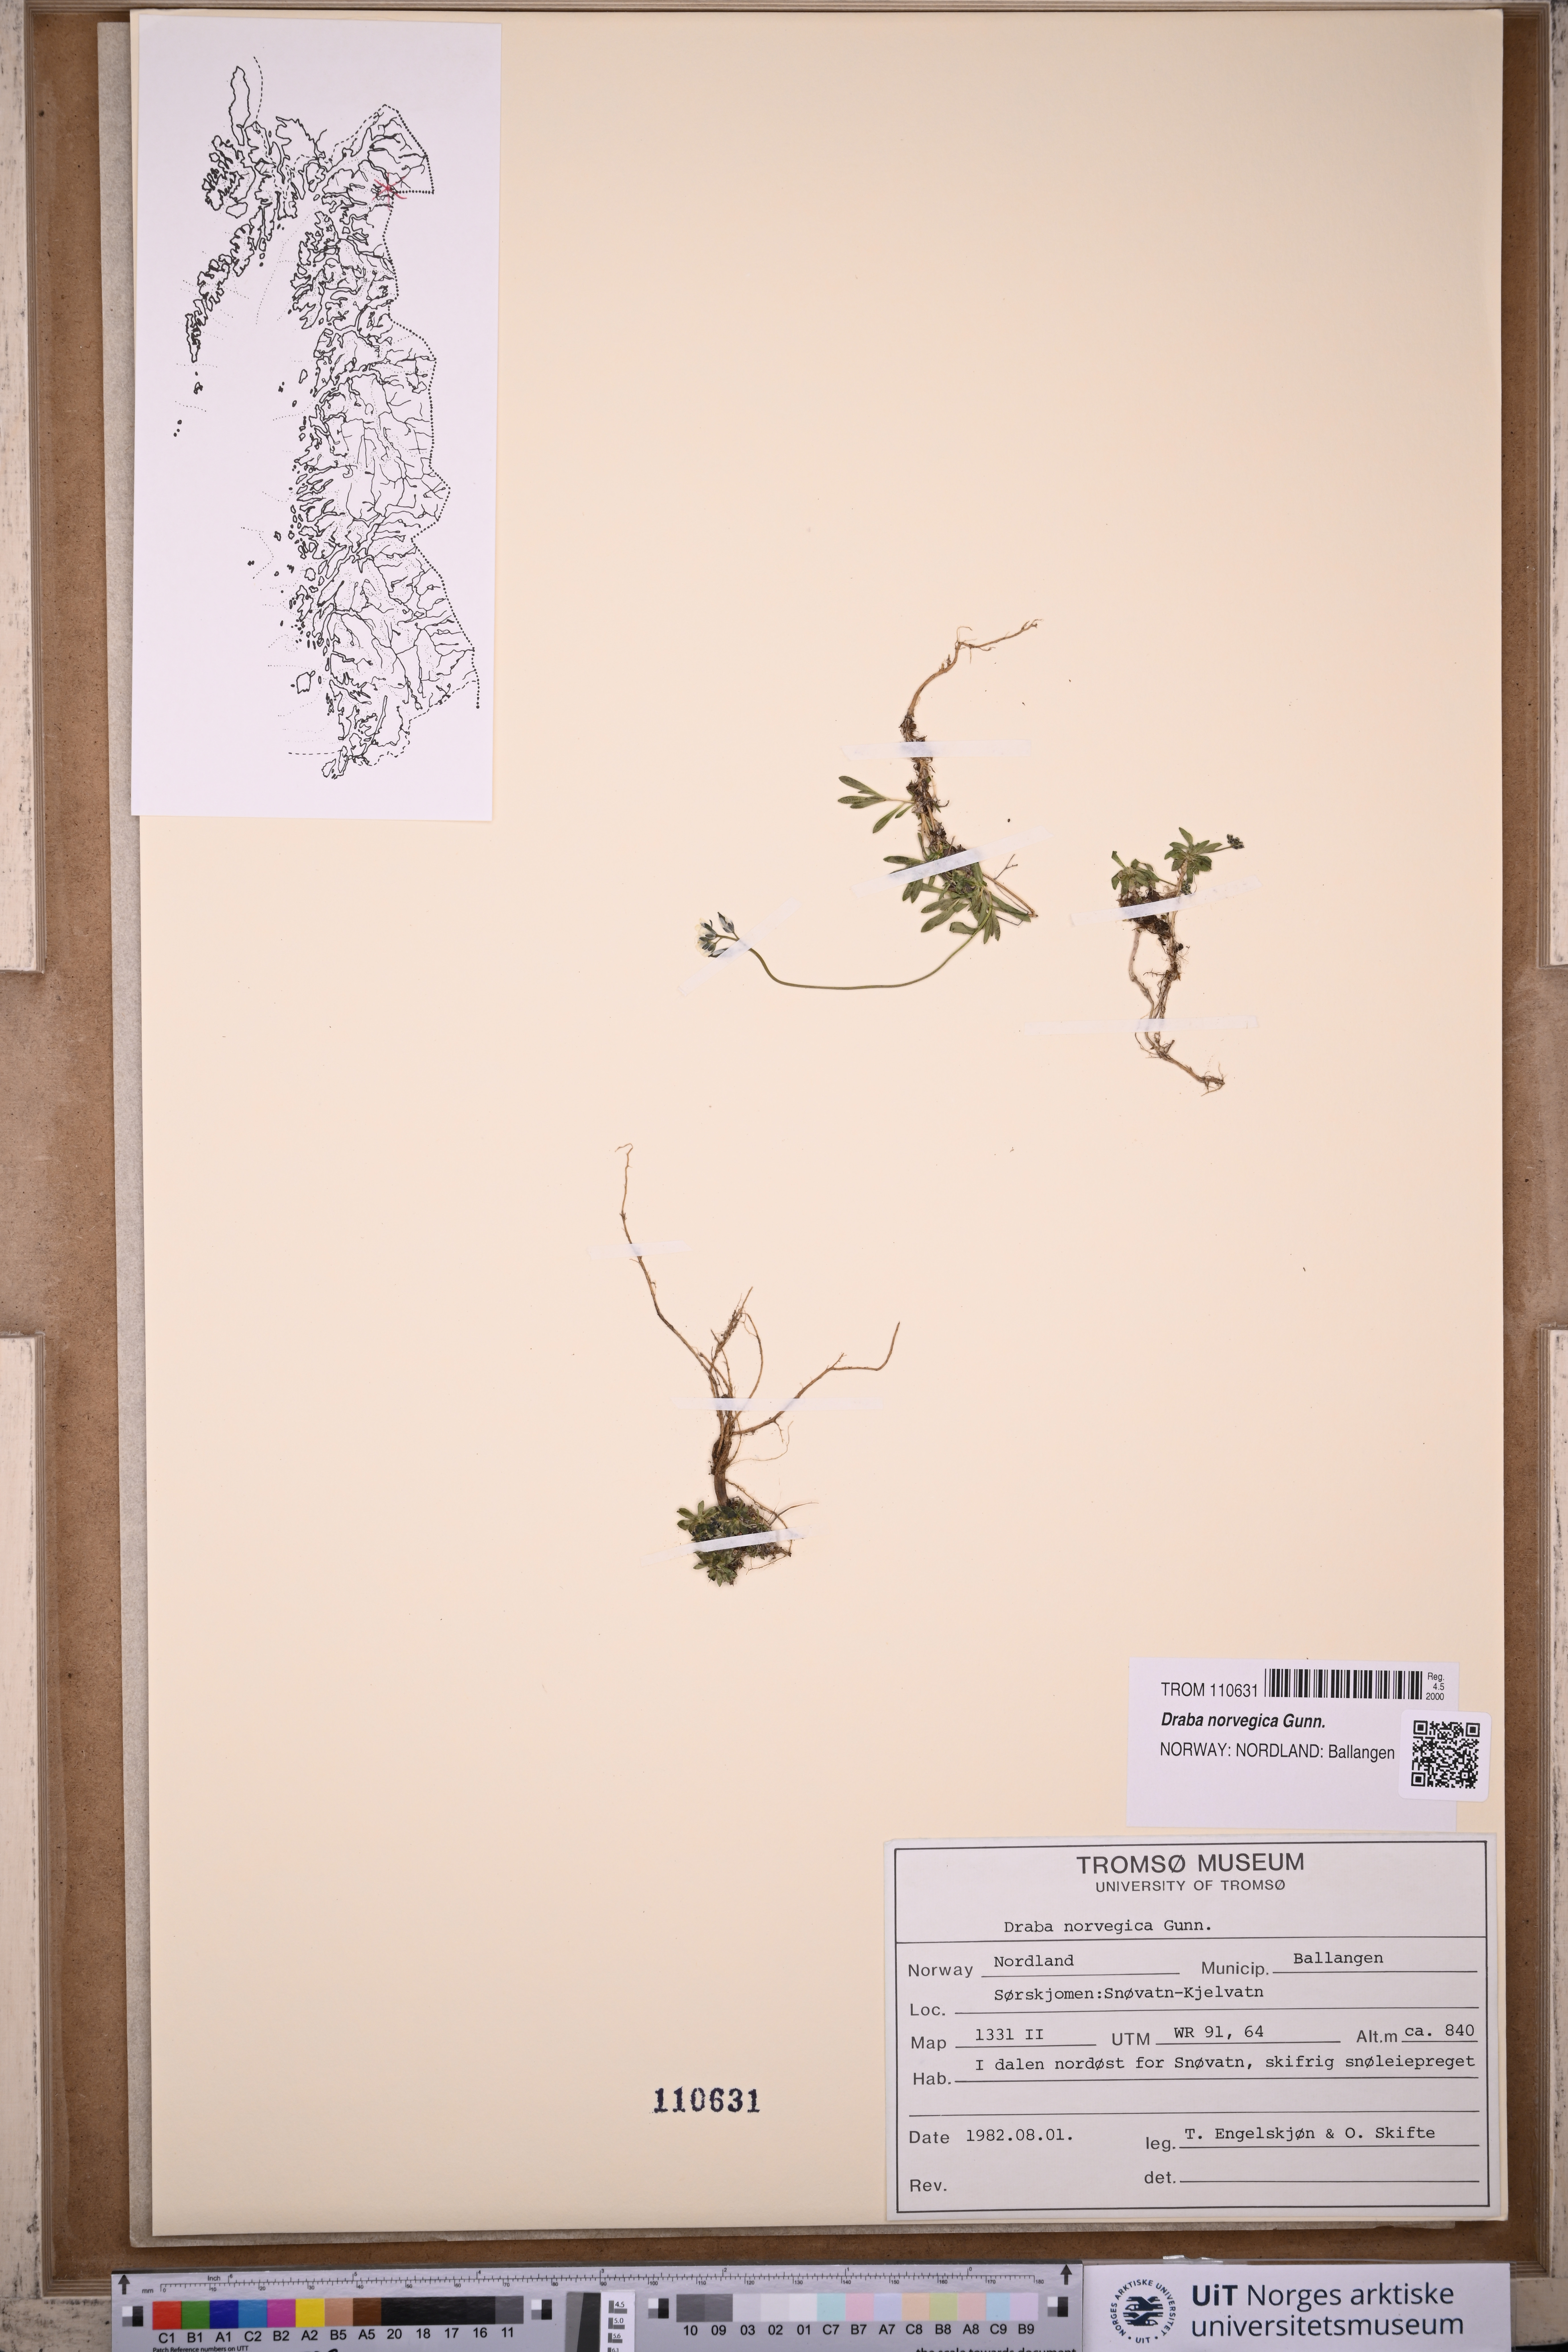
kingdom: Plantae
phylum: Tracheophyta
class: Magnoliopsida
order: Brassicales
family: Brassicaceae
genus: Draba
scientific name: Draba norvegica
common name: Rock whitlowgrass
